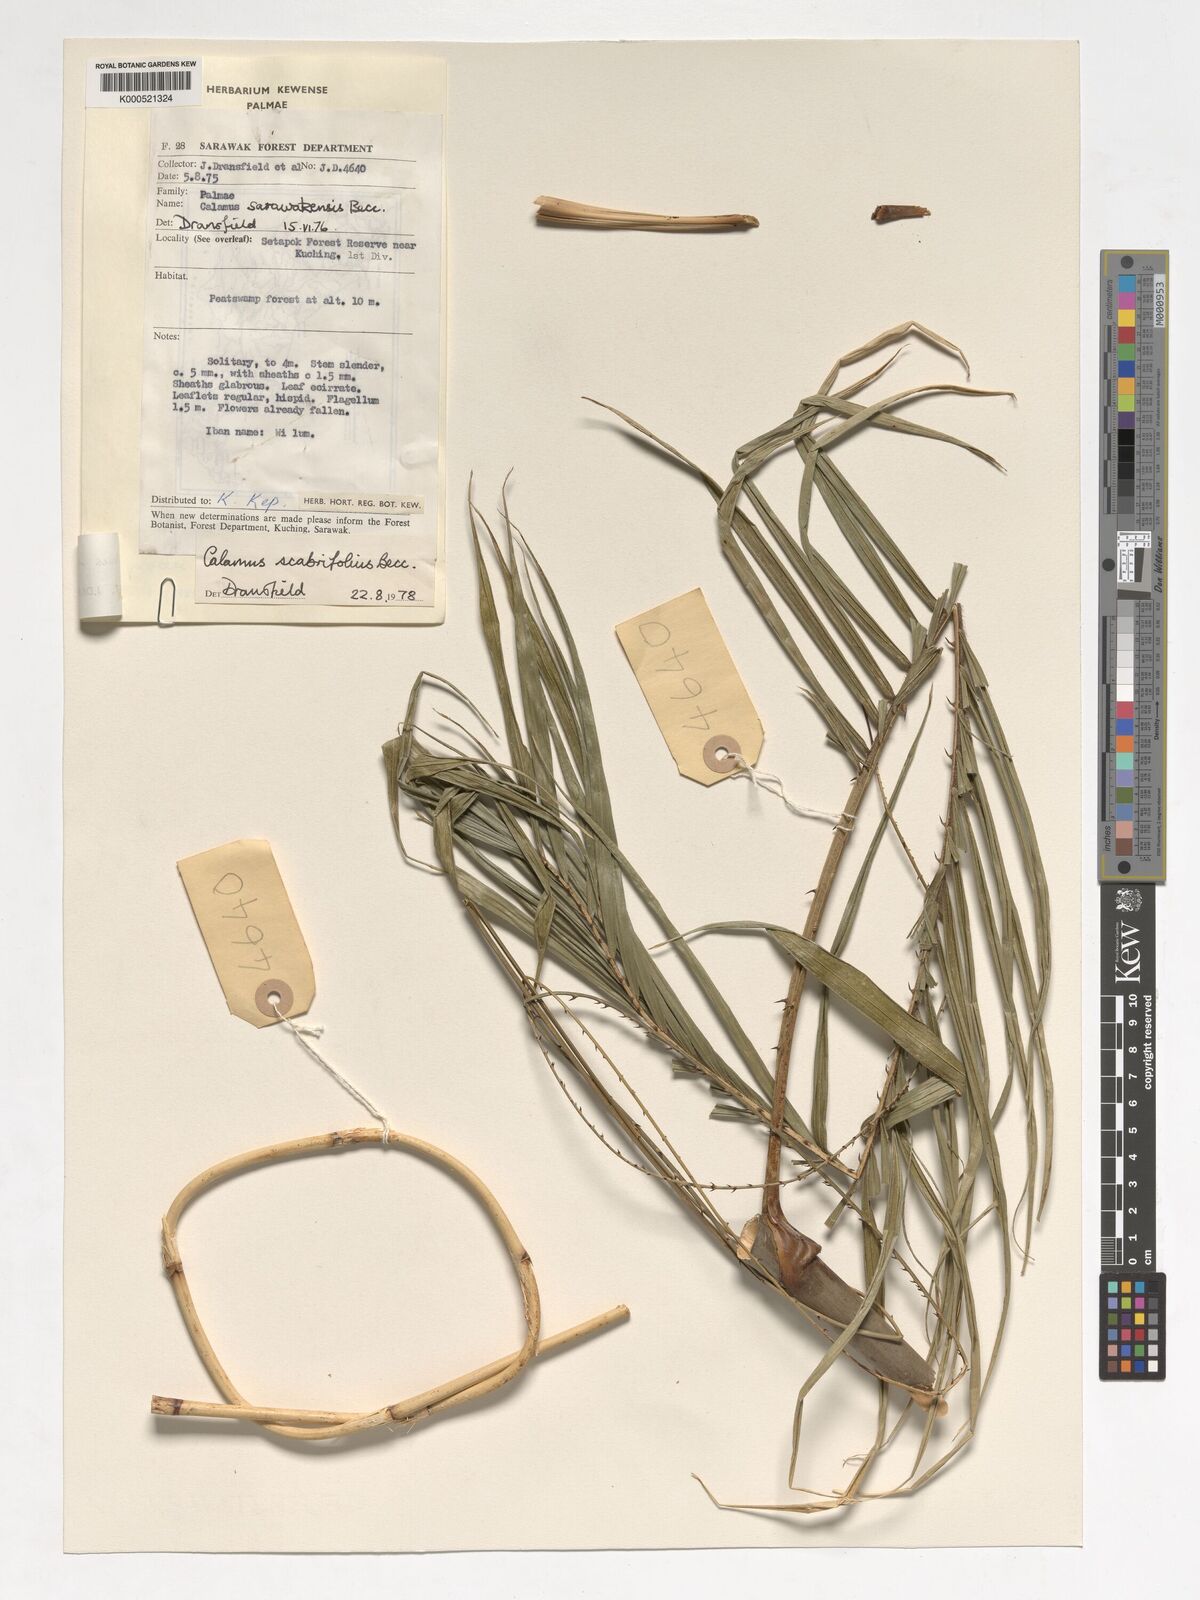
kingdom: Plantae
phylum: Tracheophyta
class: Liliopsida
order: Arecales
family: Arecaceae
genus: Calamus
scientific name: Calamus sarawakensis
